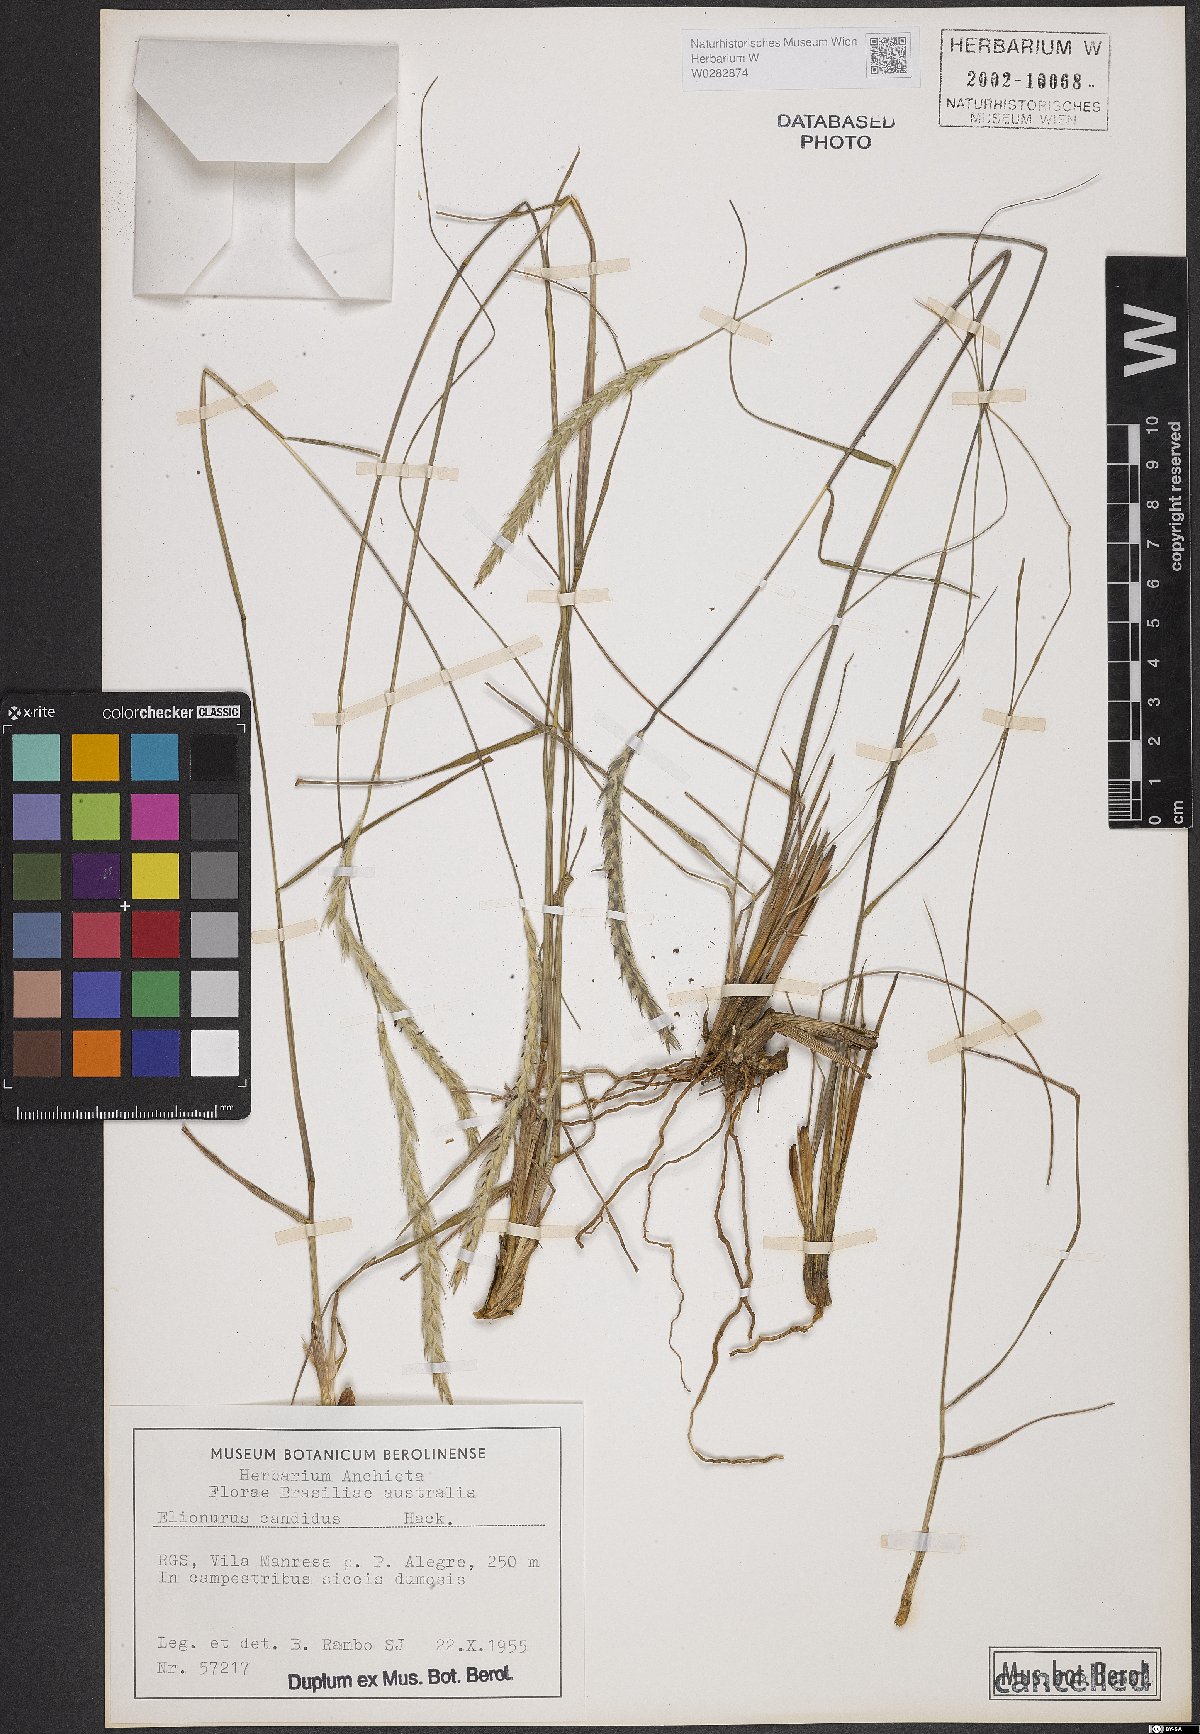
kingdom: Plantae
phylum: Tracheophyta
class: Liliopsida
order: Poales
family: Poaceae
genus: Elionurus
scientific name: Elionurus muticus
